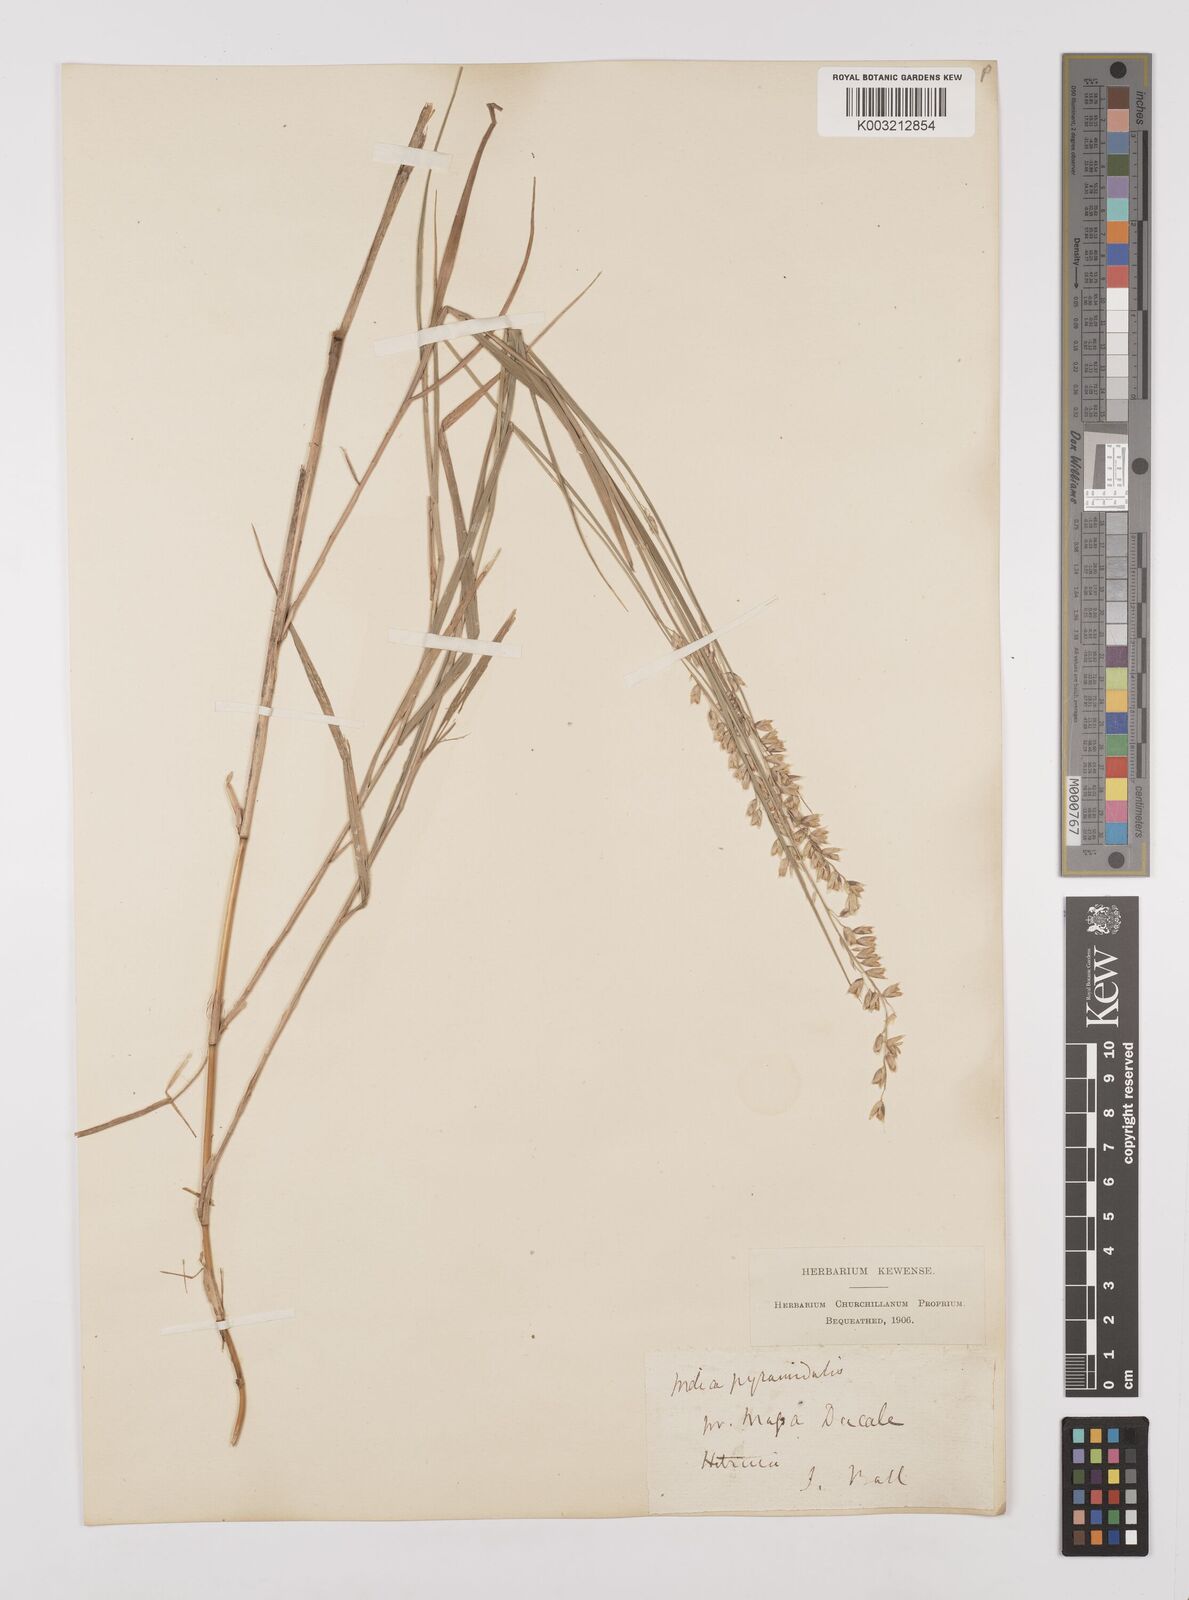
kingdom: Plantae
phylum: Tracheophyta
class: Liliopsida
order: Poales
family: Poaceae
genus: Melica
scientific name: Melica minuta
